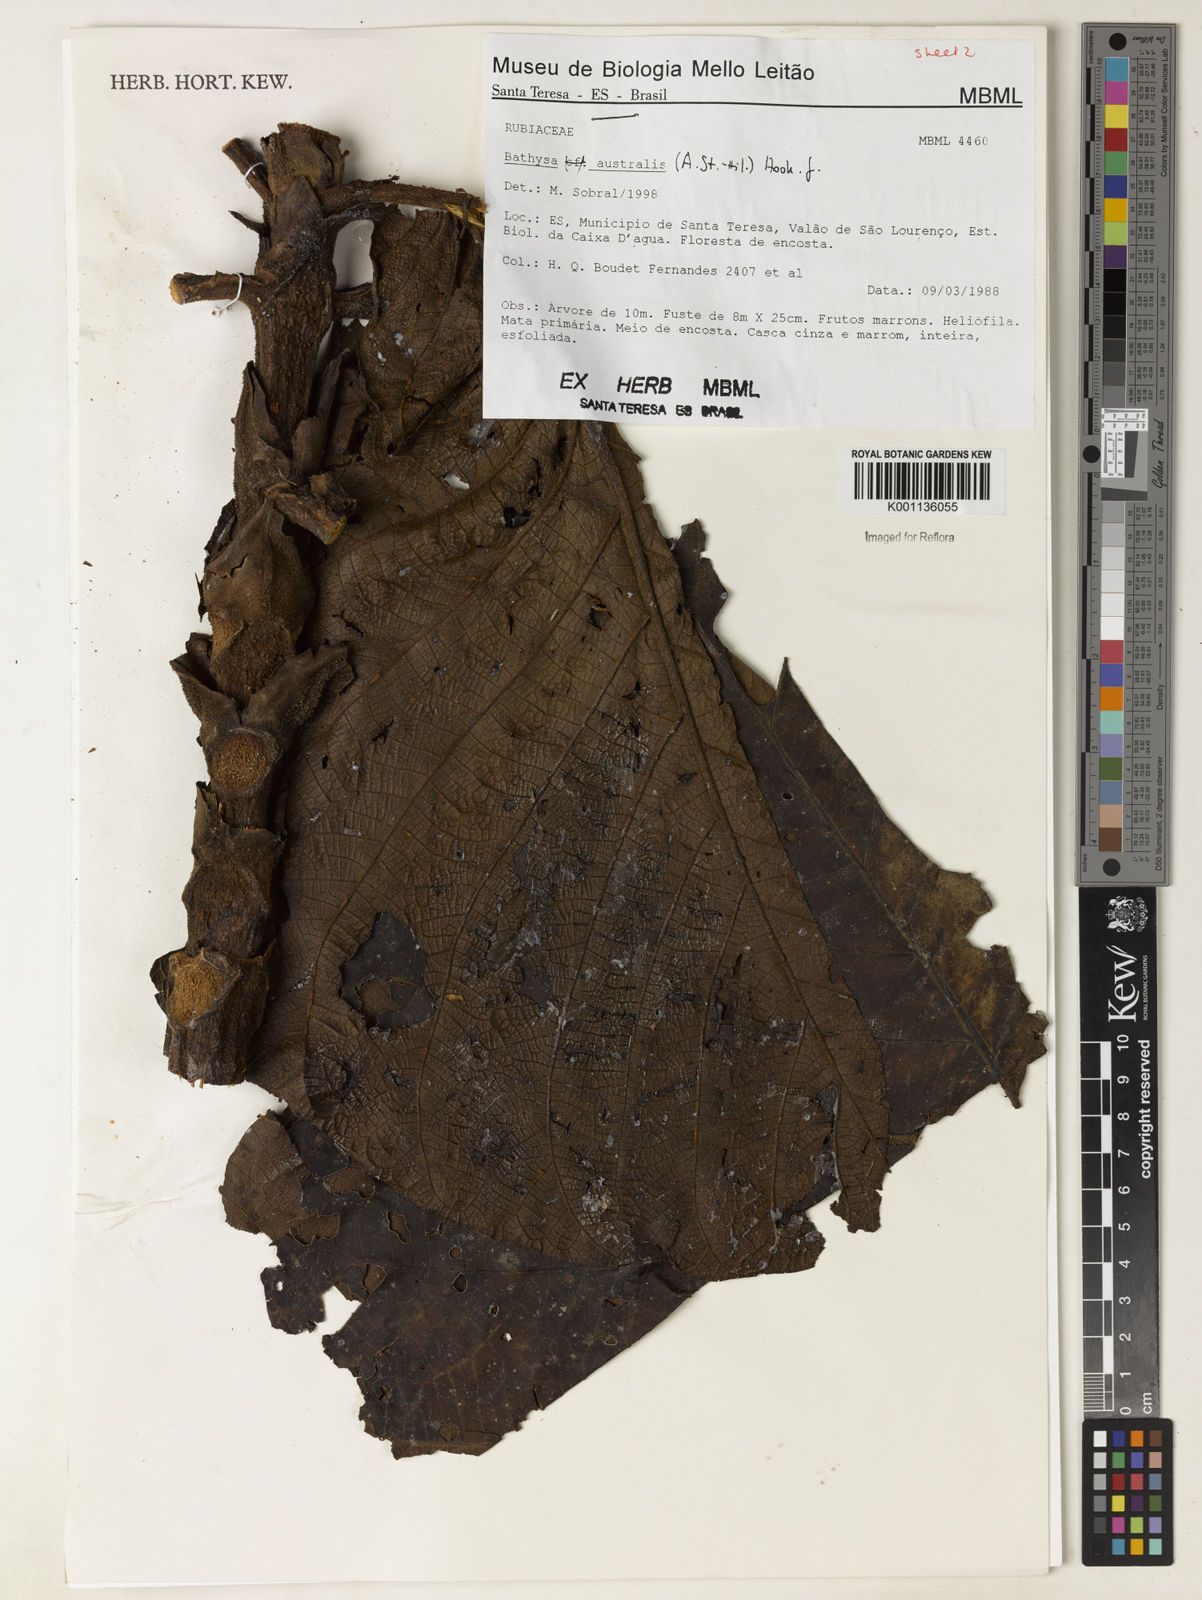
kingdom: Plantae
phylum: Tracheophyta
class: Magnoliopsida
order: Gentianales
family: Rubiaceae
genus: Bathysa
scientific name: Bathysa australis
